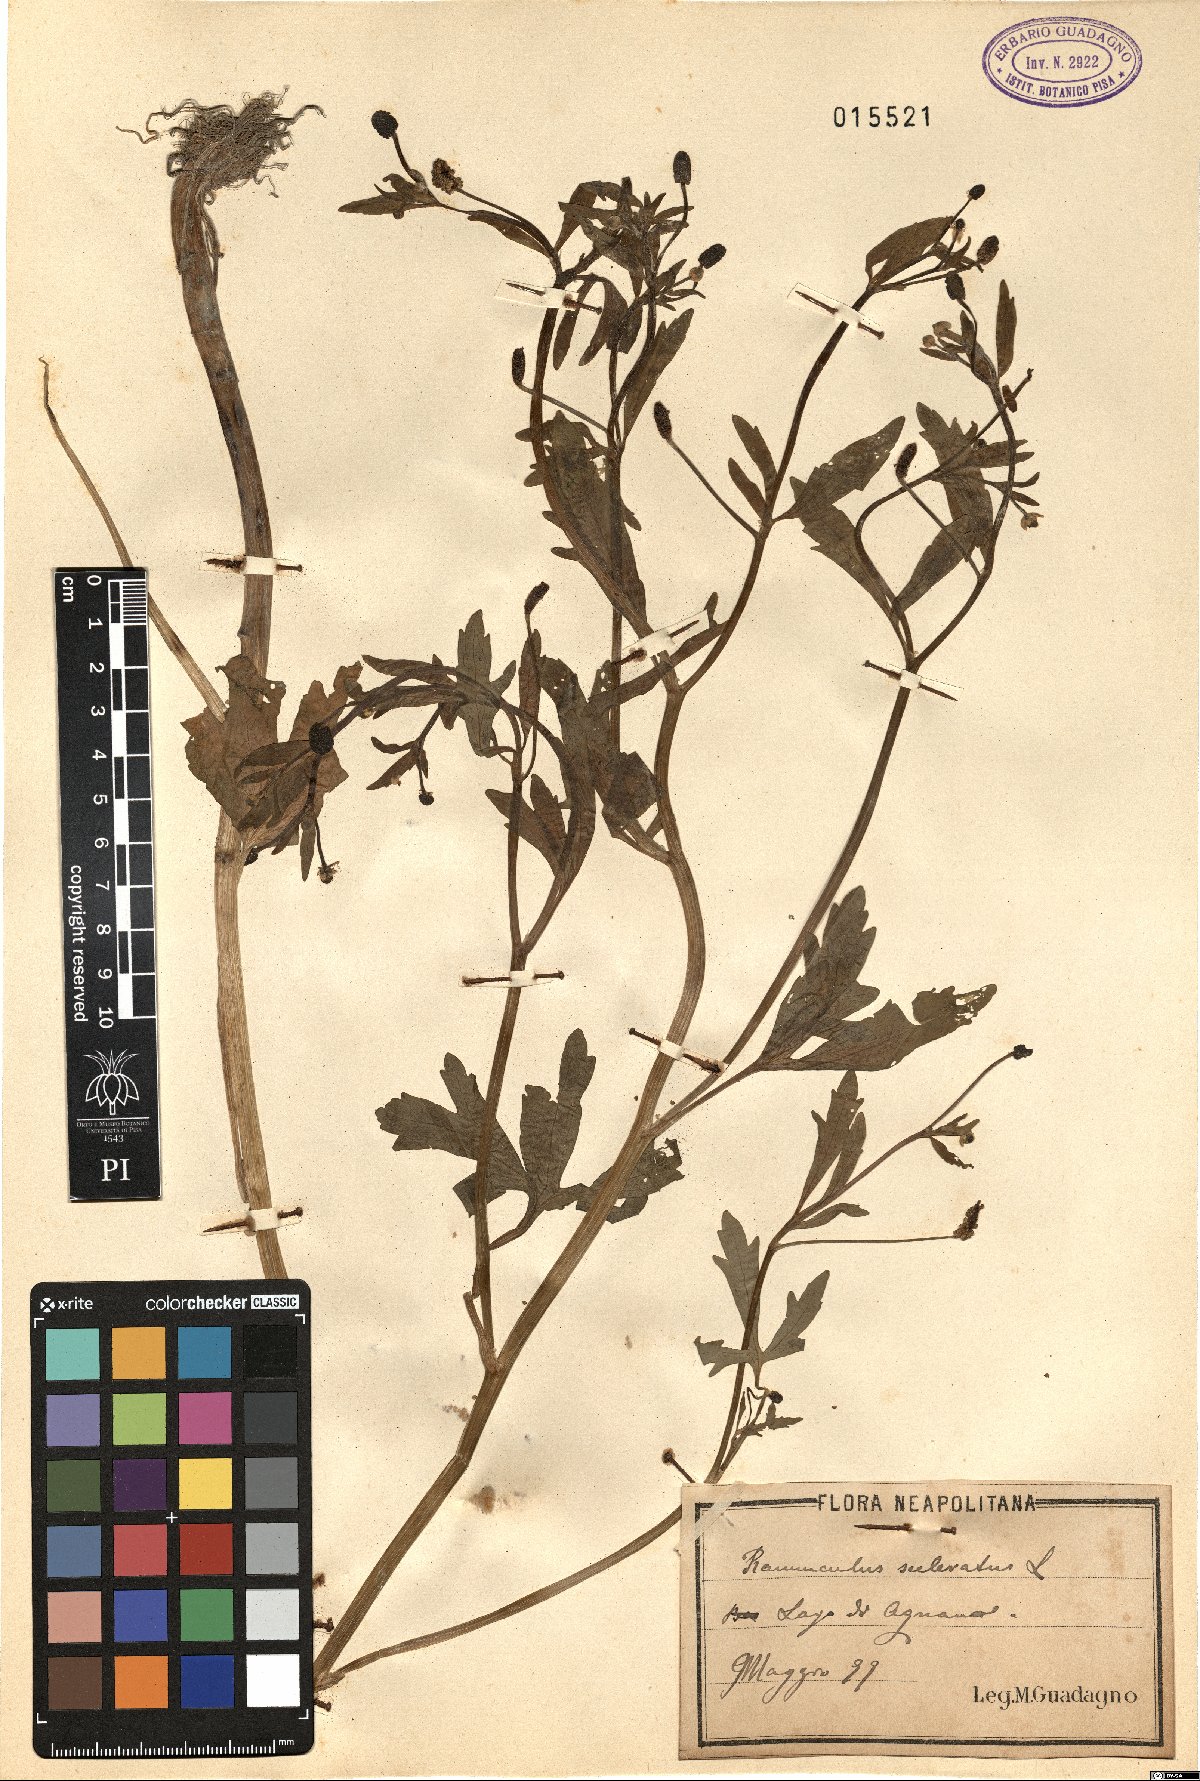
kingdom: Plantae
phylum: Tracheophyta
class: Magnoliopsida
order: Ranunculales
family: Ranunculaceae
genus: Ranunculus
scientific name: Ranunculus sceleratus
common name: Celery-leaved buttercup
